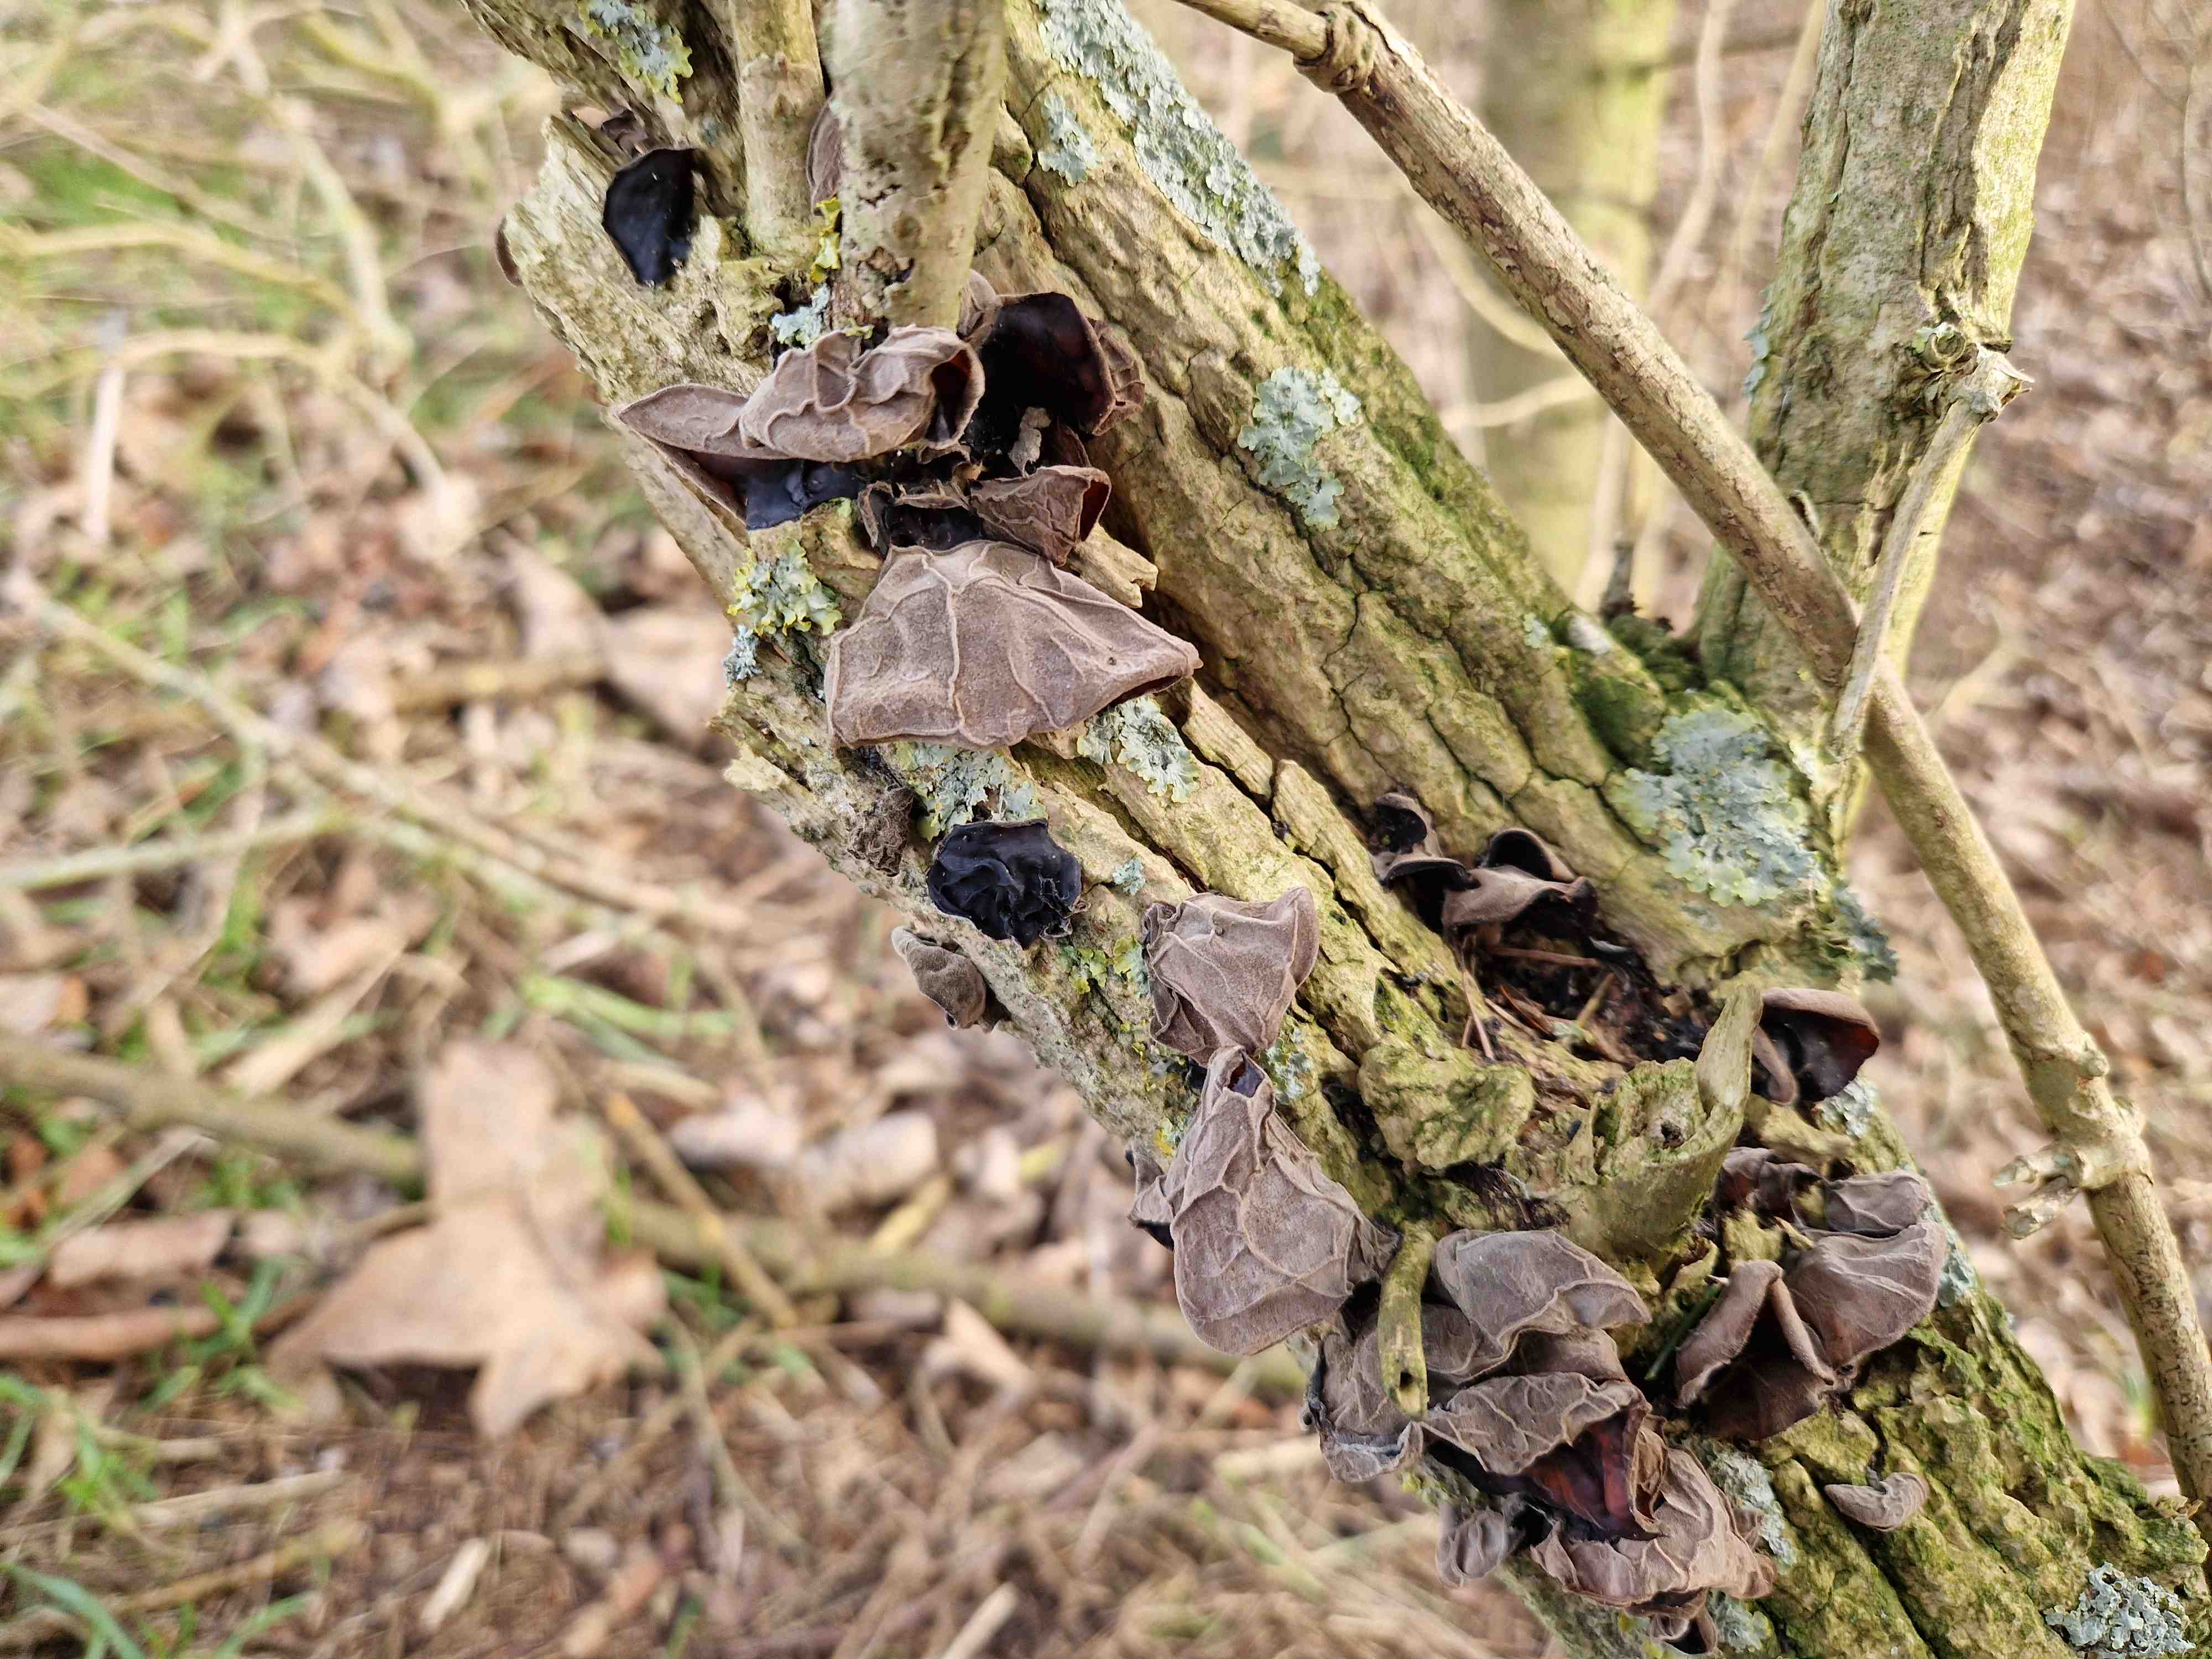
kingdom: Fungi
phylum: Basidiomycota
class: Agaricomycetes
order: Auriculariales
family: Auriculariaceae
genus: Auricularia
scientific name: Auricularia auricula-judae
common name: almindelig judasøre
